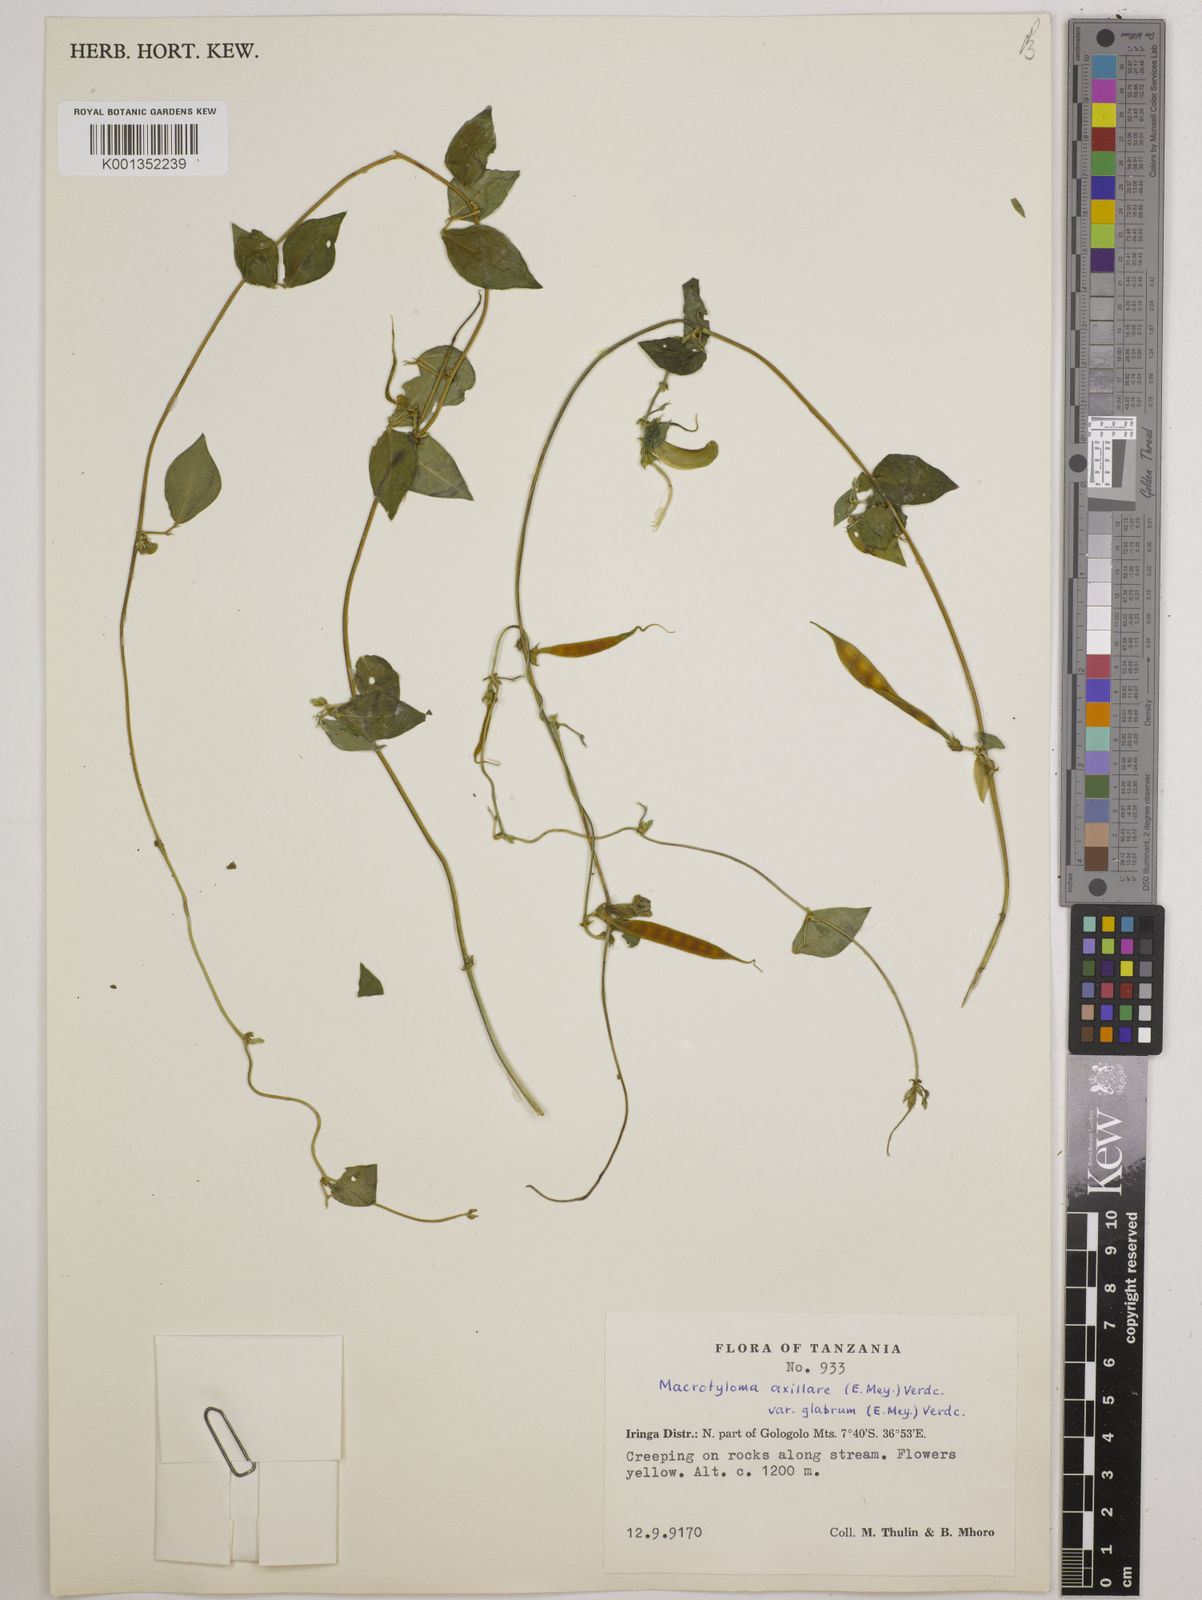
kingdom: Plantae
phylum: Tracheophyta
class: Magnoliopsida
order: Fabales
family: Fabaceae
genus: Macrotyloma
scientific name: Macrotyloma
